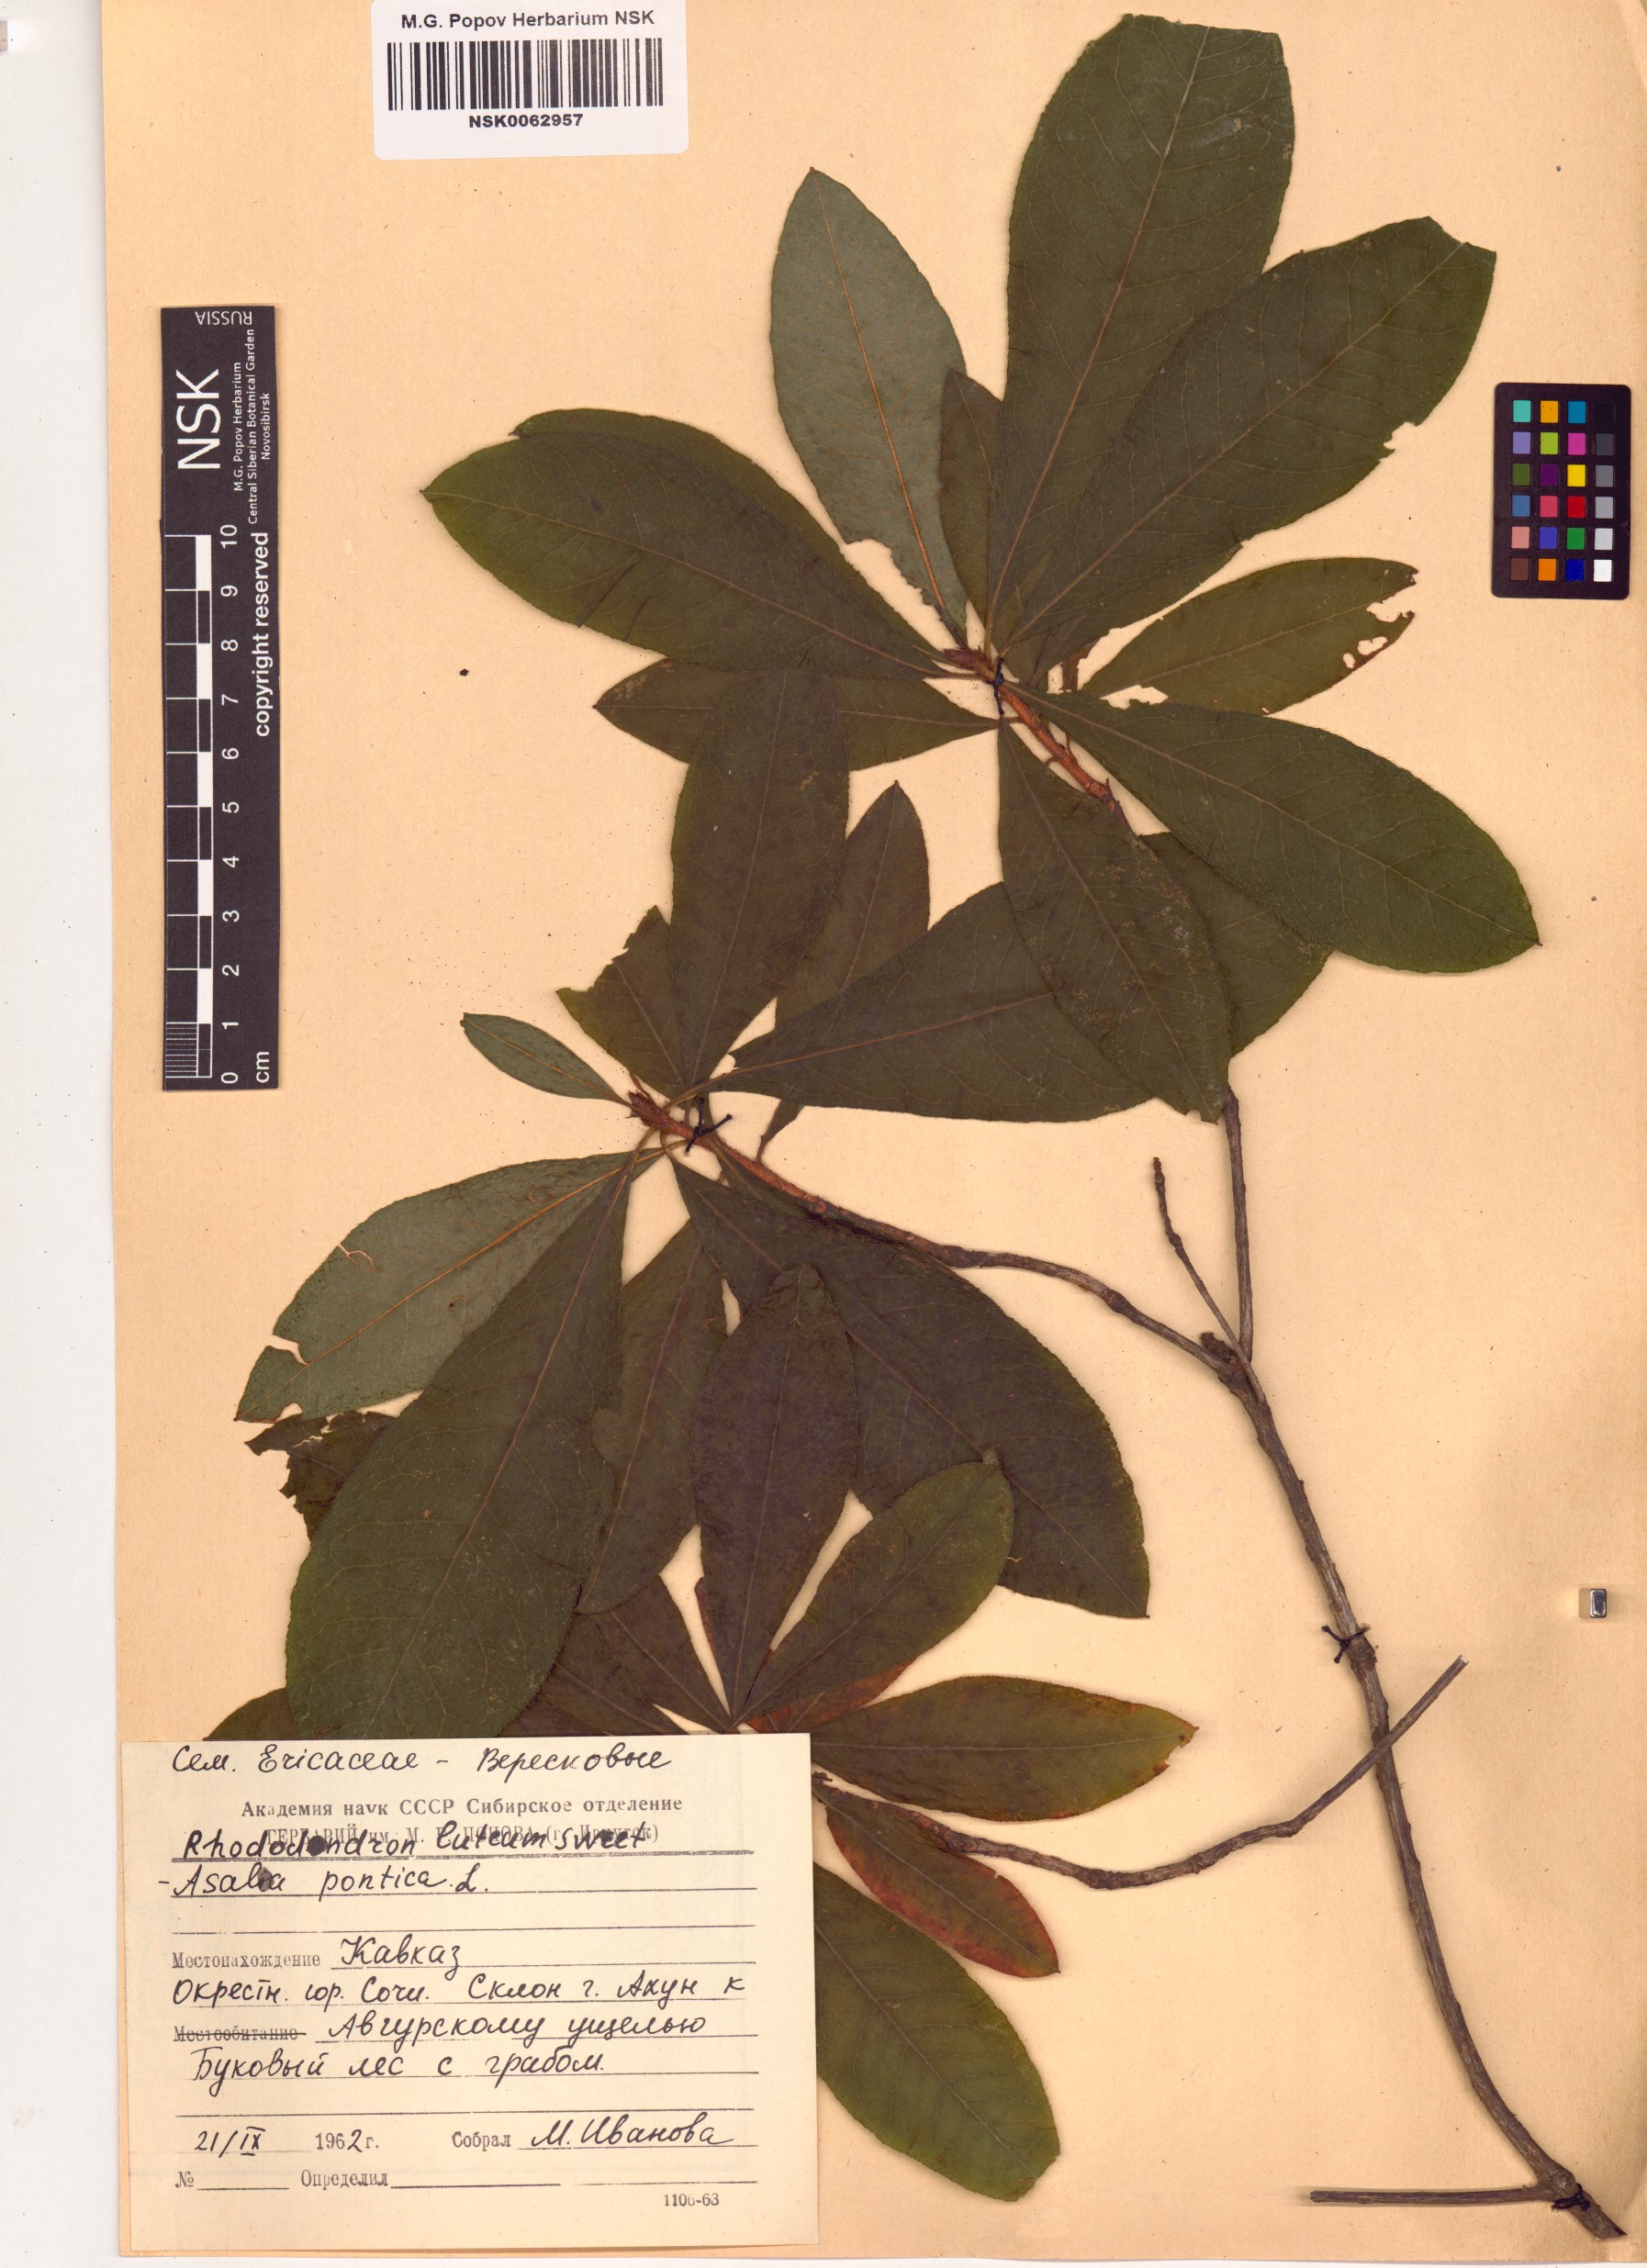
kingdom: Plantae
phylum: Tracheophyta
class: Magnoliopsida
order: Ericales
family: Ericaceae
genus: Rhododendron
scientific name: Rhododendron luteum
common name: Yellow azalea
